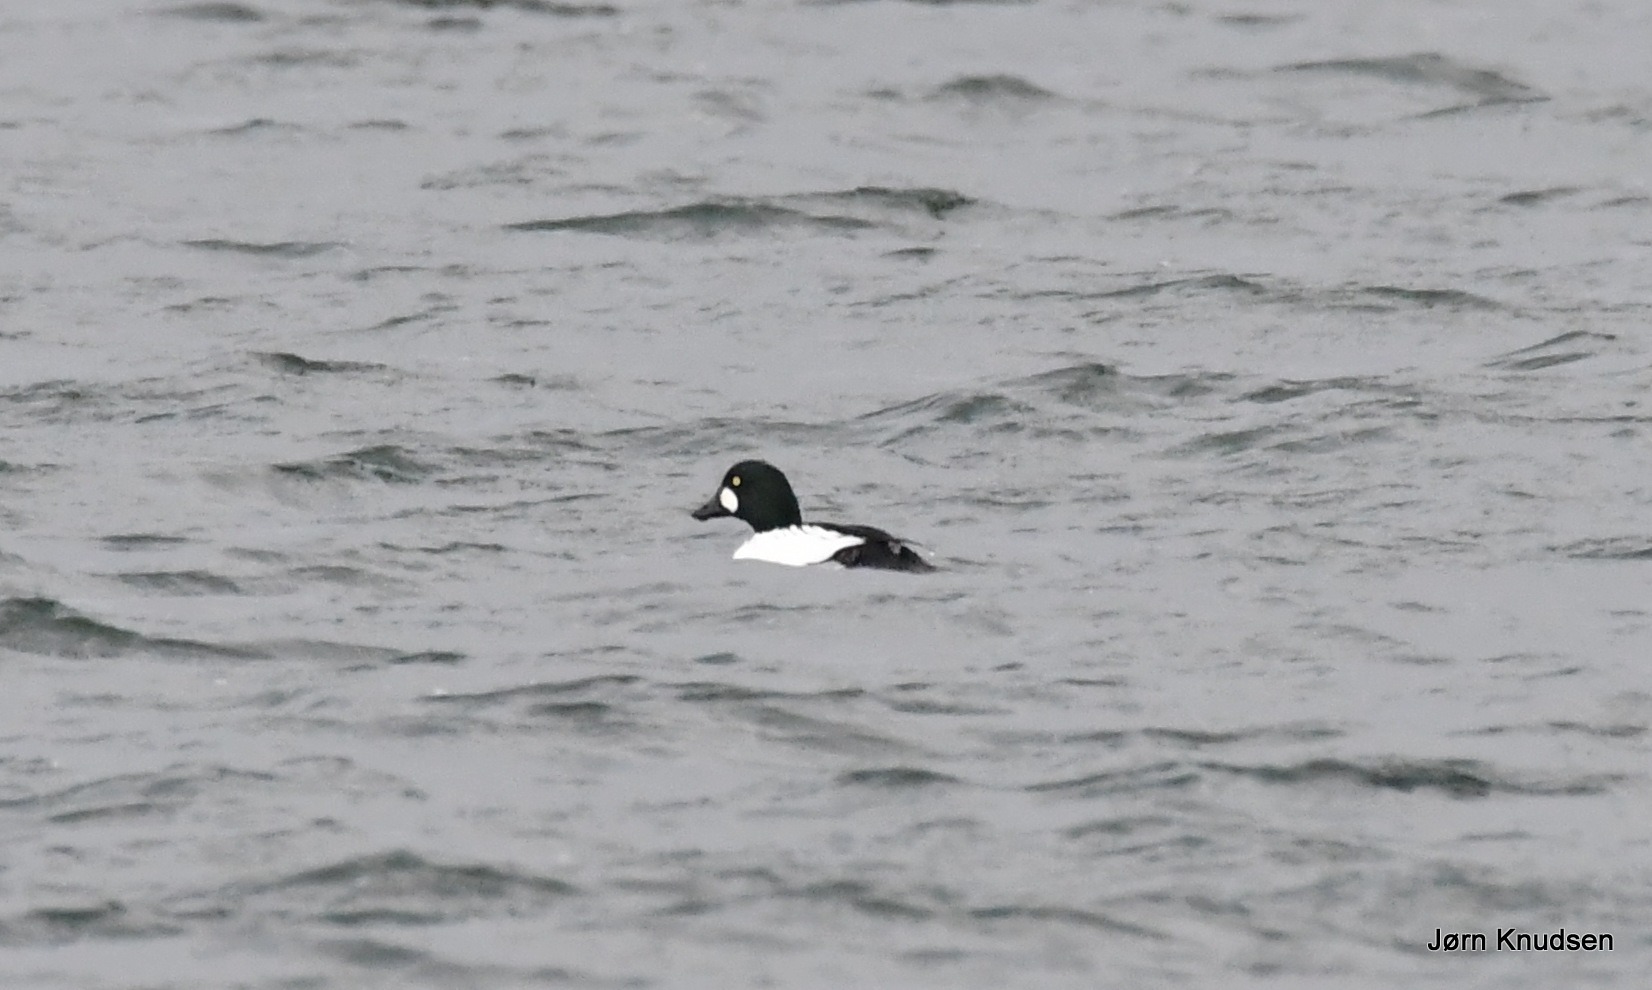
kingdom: Animalia
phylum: Chordata
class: Aves
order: Anseriformes
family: Anatidae
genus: Bucephala
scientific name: Bucephala clangula
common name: Hvinand
